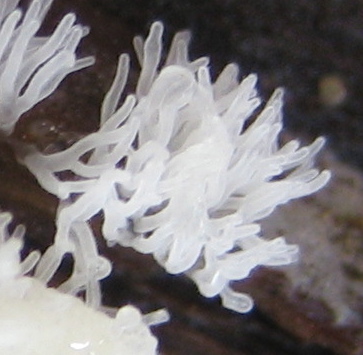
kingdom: Protozoa
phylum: Mycetozoa
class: Protosteliomycetes
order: Ceratiomyxales
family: Ceratiomyxaceae
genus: Ceratiomyxa
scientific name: Ceratiomyxa fruticulosa
